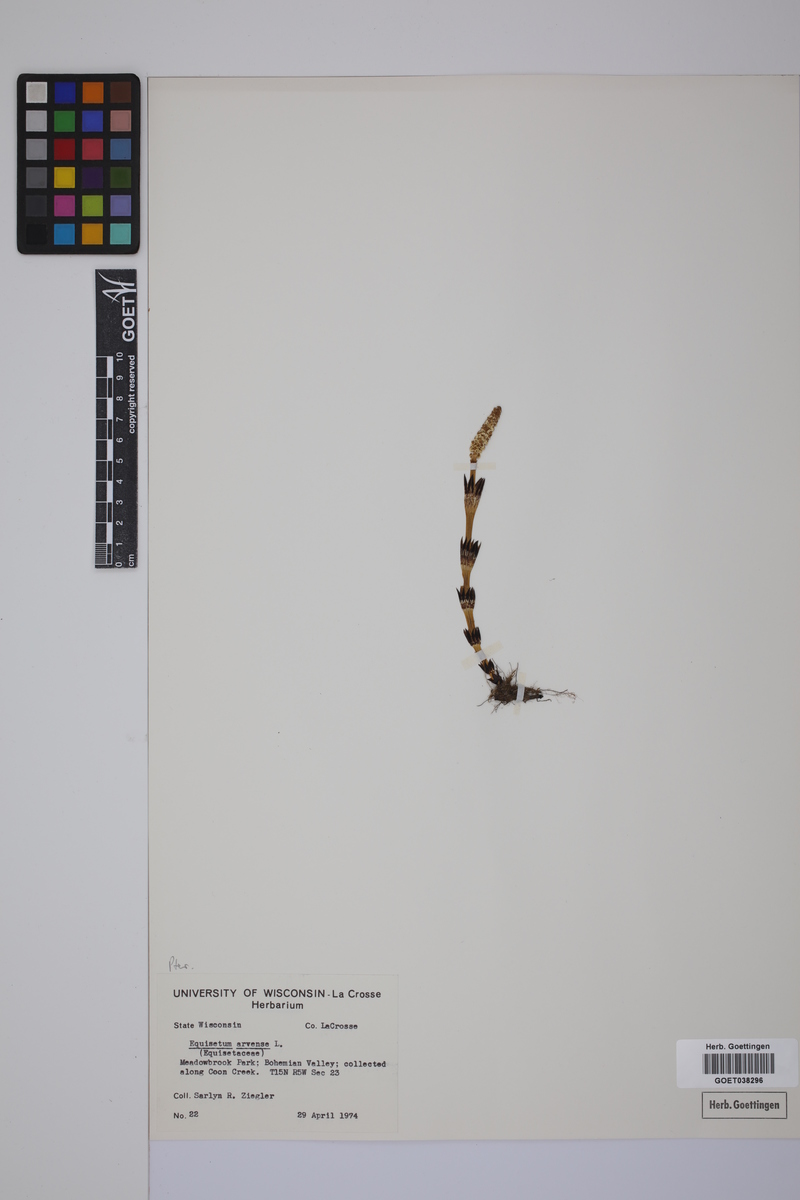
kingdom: Plantae
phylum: Tracheophyta
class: Polypodiopsida
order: Equisetales
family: Equisetaceae
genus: Equisetum
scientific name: Equisetum arvense
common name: Field horsetail
